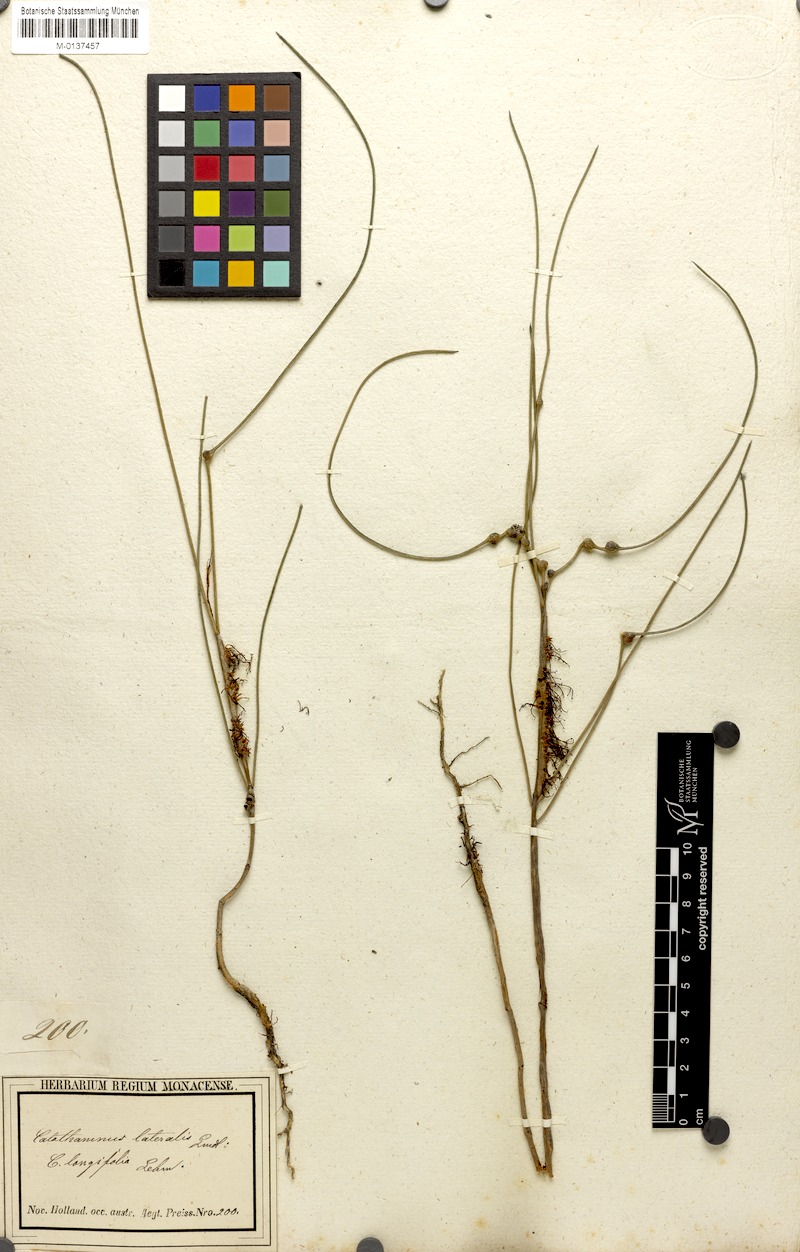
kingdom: Plantae
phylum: Tracheophyta
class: Magnoliopsida
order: Myrtales
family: Myrtaceae
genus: Melaleuca
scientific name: Melaleuca lateralis
